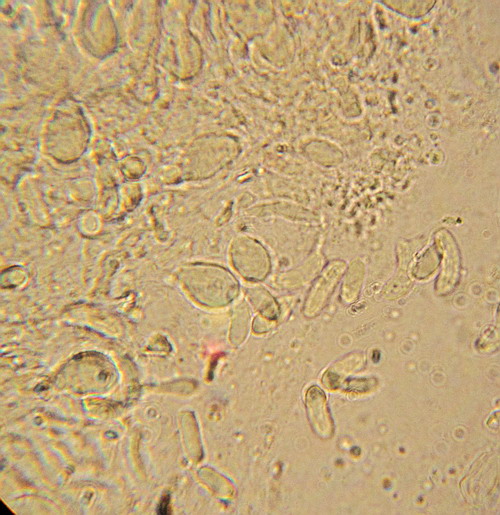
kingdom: Fungi
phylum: Basidiomycota
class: Tremellomycetes
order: Tremellales
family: Exidiaceae
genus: Exidiopsis
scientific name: Exidiopsis effusa
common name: smuk bævrehinde
